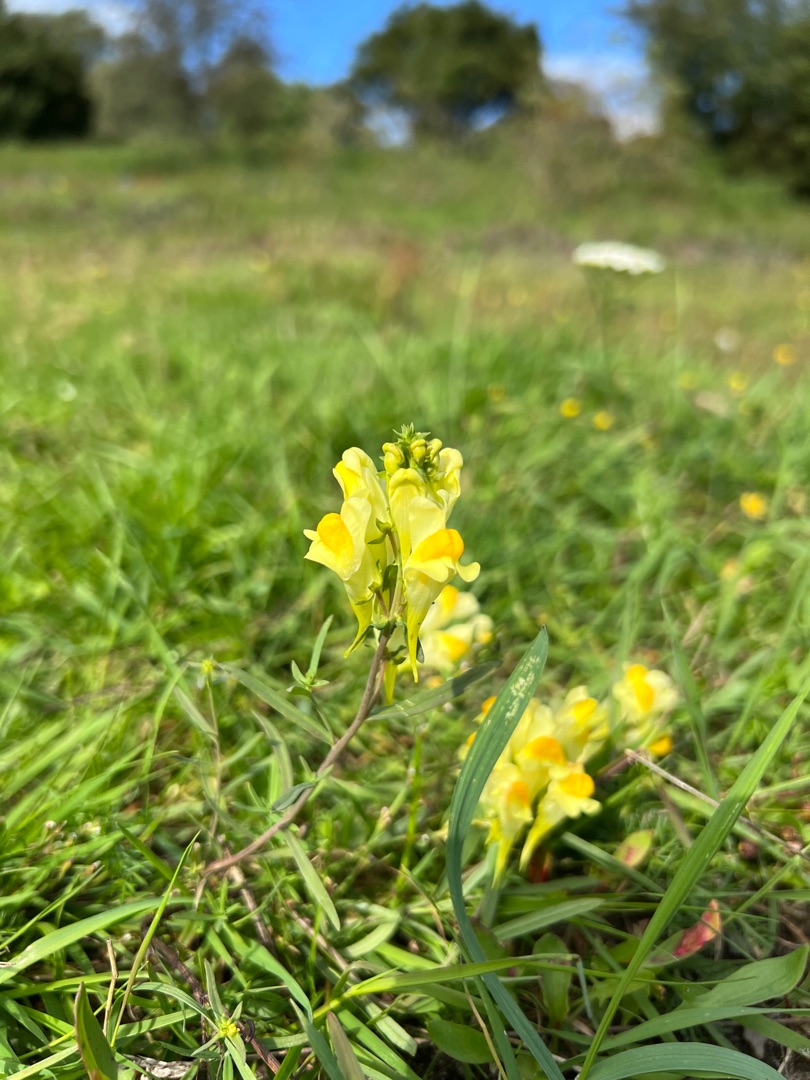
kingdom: Plantae
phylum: Tracheophyta
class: Magnoliopsida
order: Lamiales
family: Plantaginaceae
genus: Linaria
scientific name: Linaria vulgaris
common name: Almindelig torskemund
